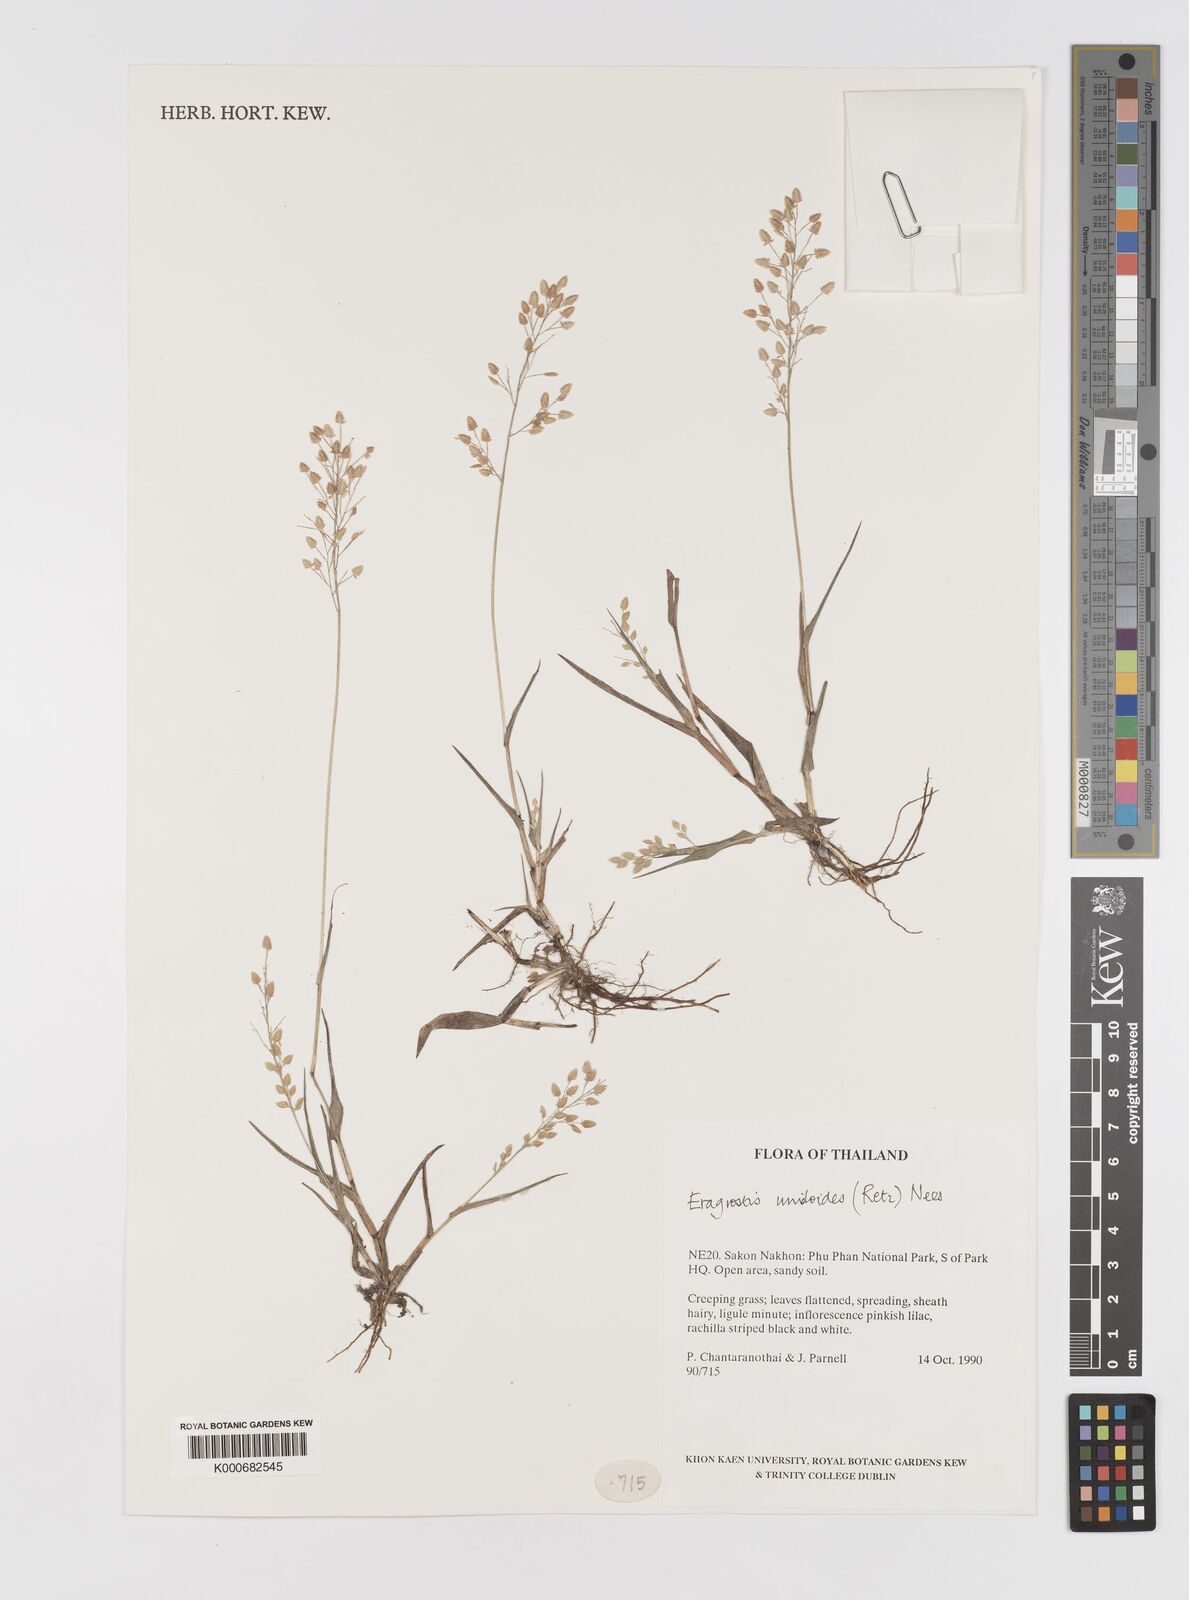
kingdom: Plantae
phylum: Tracheophyta
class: Liliopsida
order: Poales
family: Poaceae
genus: Eragrostis
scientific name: Eragrostis unioloides
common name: Chinese lovegrass
